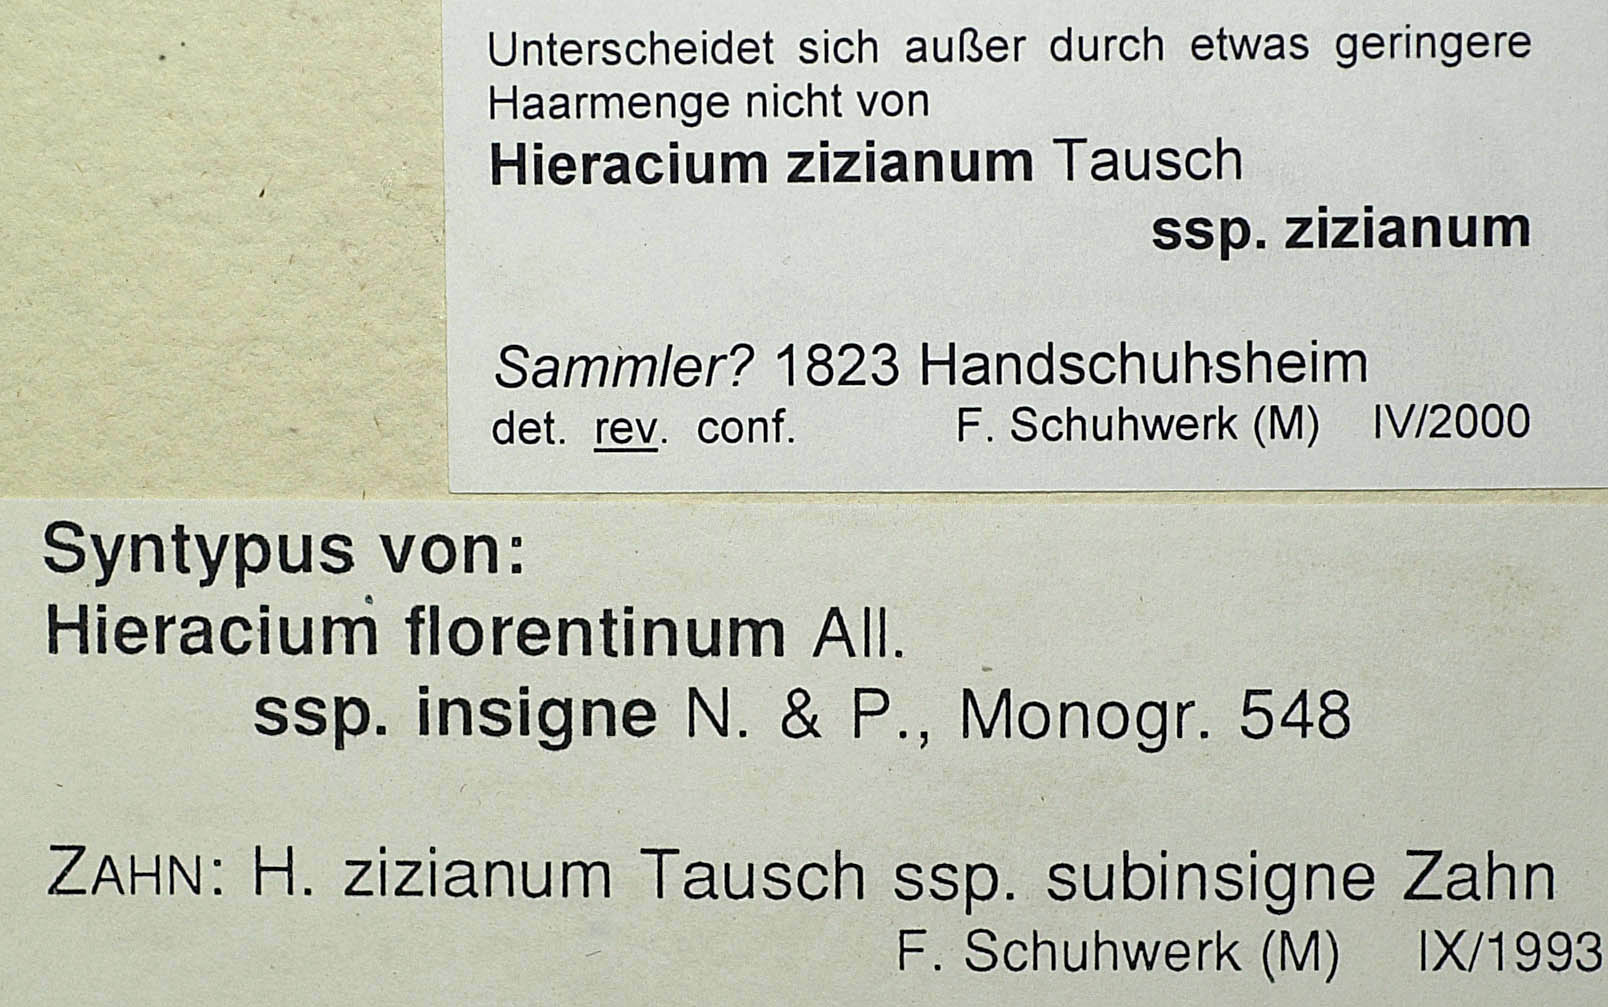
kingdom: Plantae
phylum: Tracheophyta
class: Magnoliopsida
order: Asterales
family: Asteraceae
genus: Pilosella
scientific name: Pilosella ziziana
